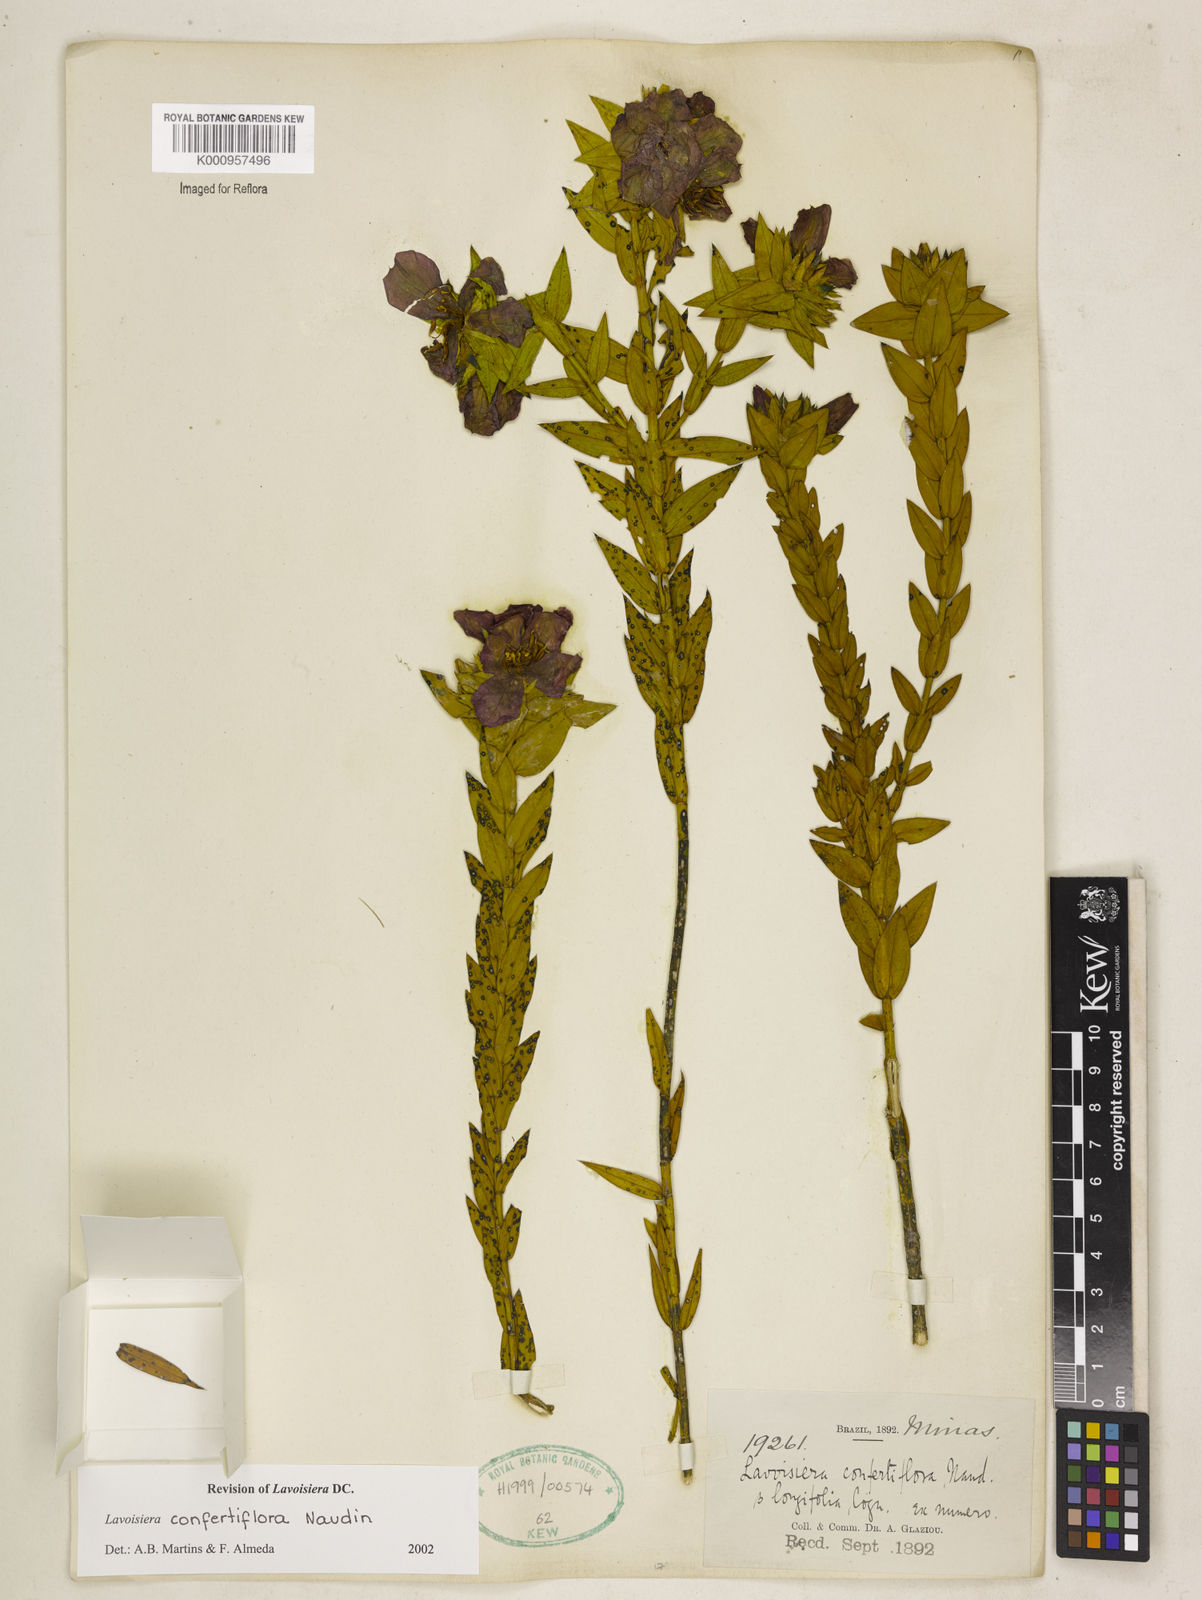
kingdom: Plantae
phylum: Tracheophyta
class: Magnoliopsida
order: Myrtales
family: Melastomataceae
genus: Microlicia
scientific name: Microlicia congestiflora
